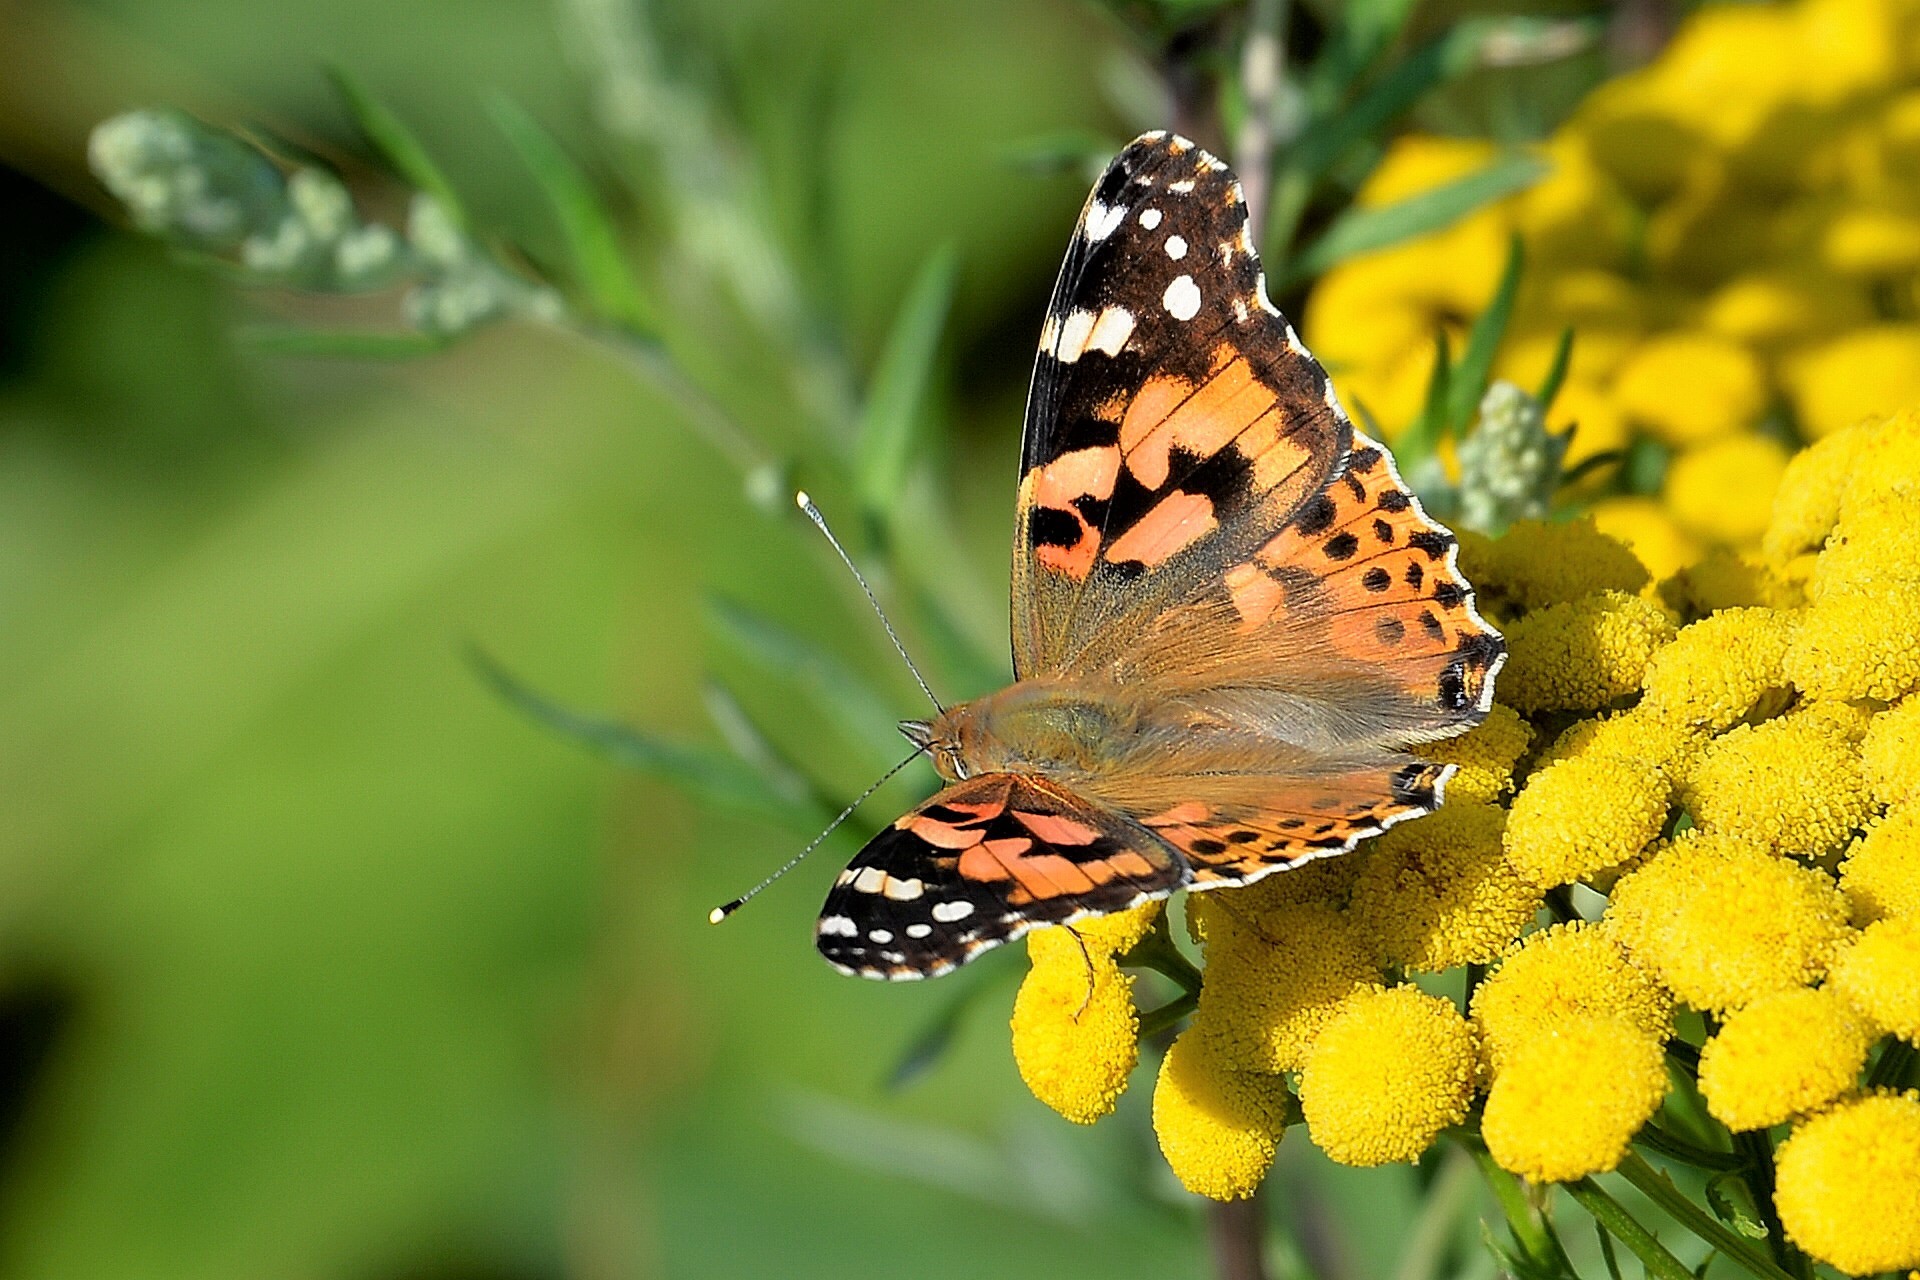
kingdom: Animalia
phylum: Arthropoda
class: Insecta
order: Lepidoptera
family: Nymphalidae
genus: Vanessa
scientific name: Vanessa cardui
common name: Painted lady
